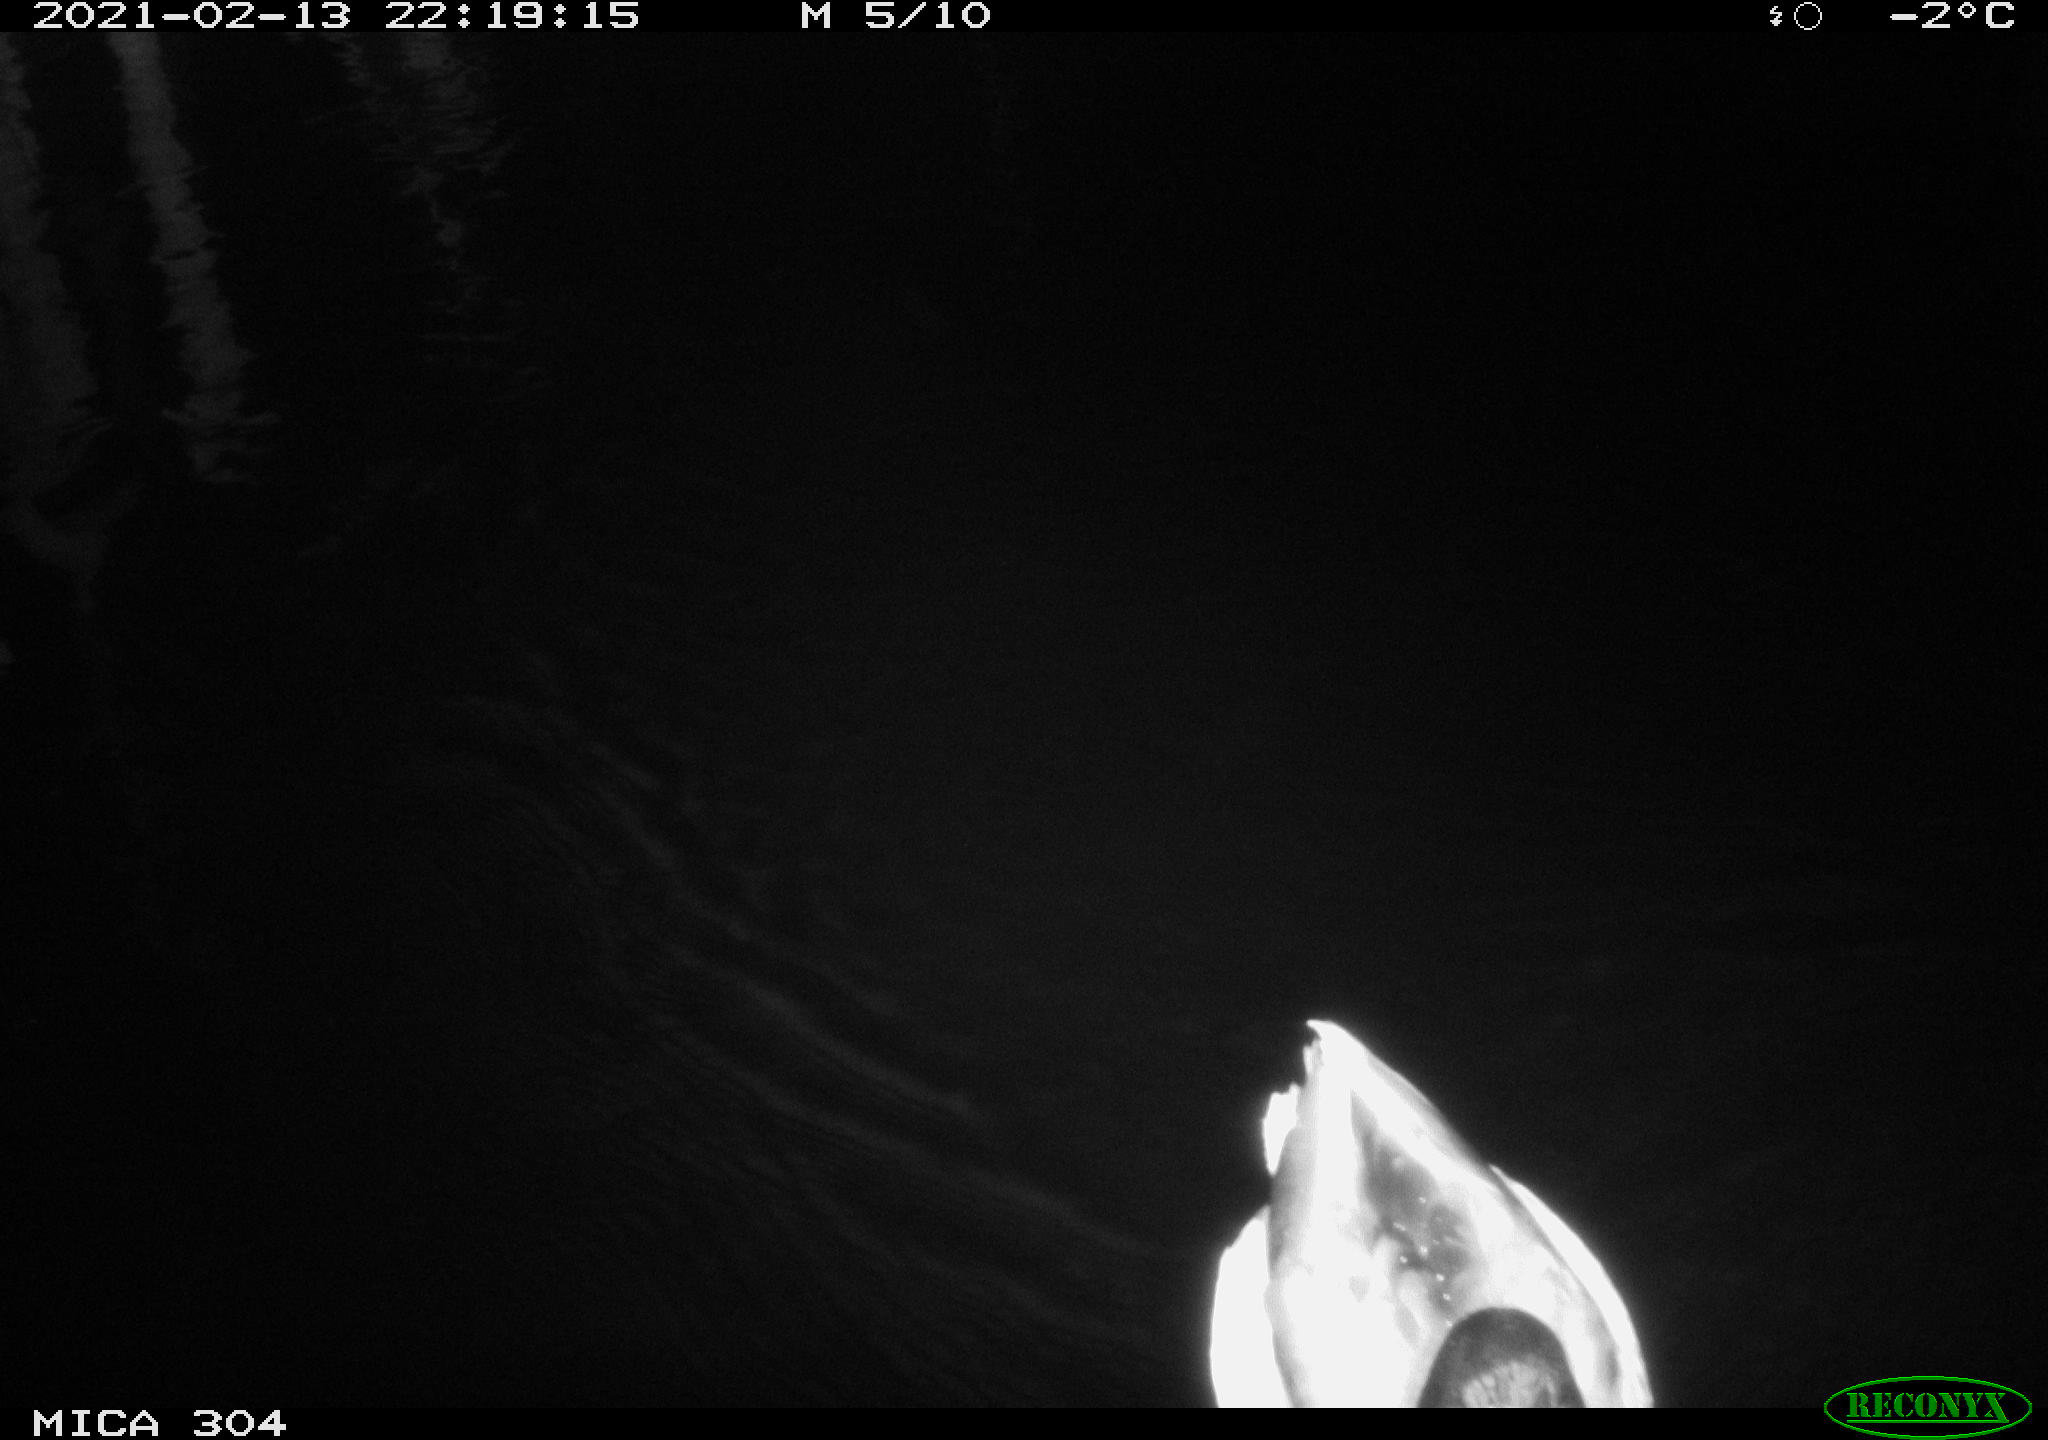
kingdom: Animalia
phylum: Chordata
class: Aves
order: Anseriformes
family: Anatidae
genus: Anas
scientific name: Anas platyrhynchos
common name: Mallard
